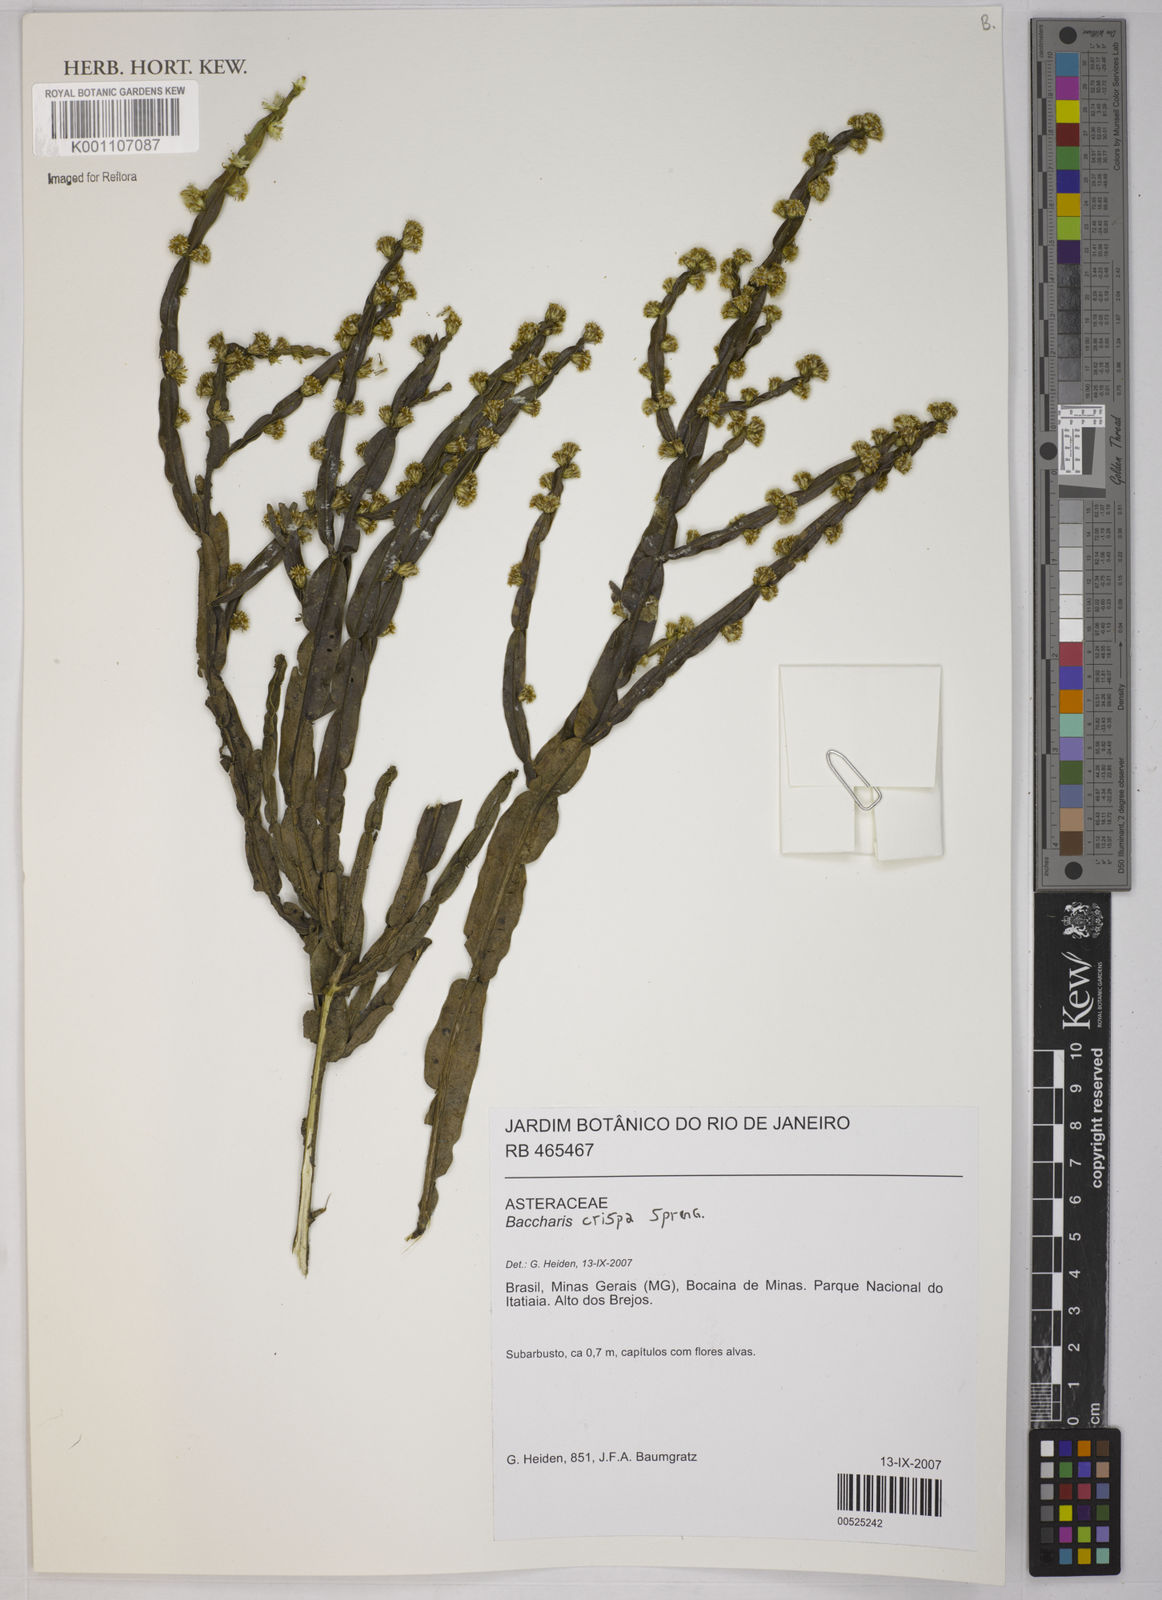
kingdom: Plantae
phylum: Tracheophyta
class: Magnoliopsida
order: Asterales
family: Asteraceae
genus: Baccharis
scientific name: Baccharis crispa
